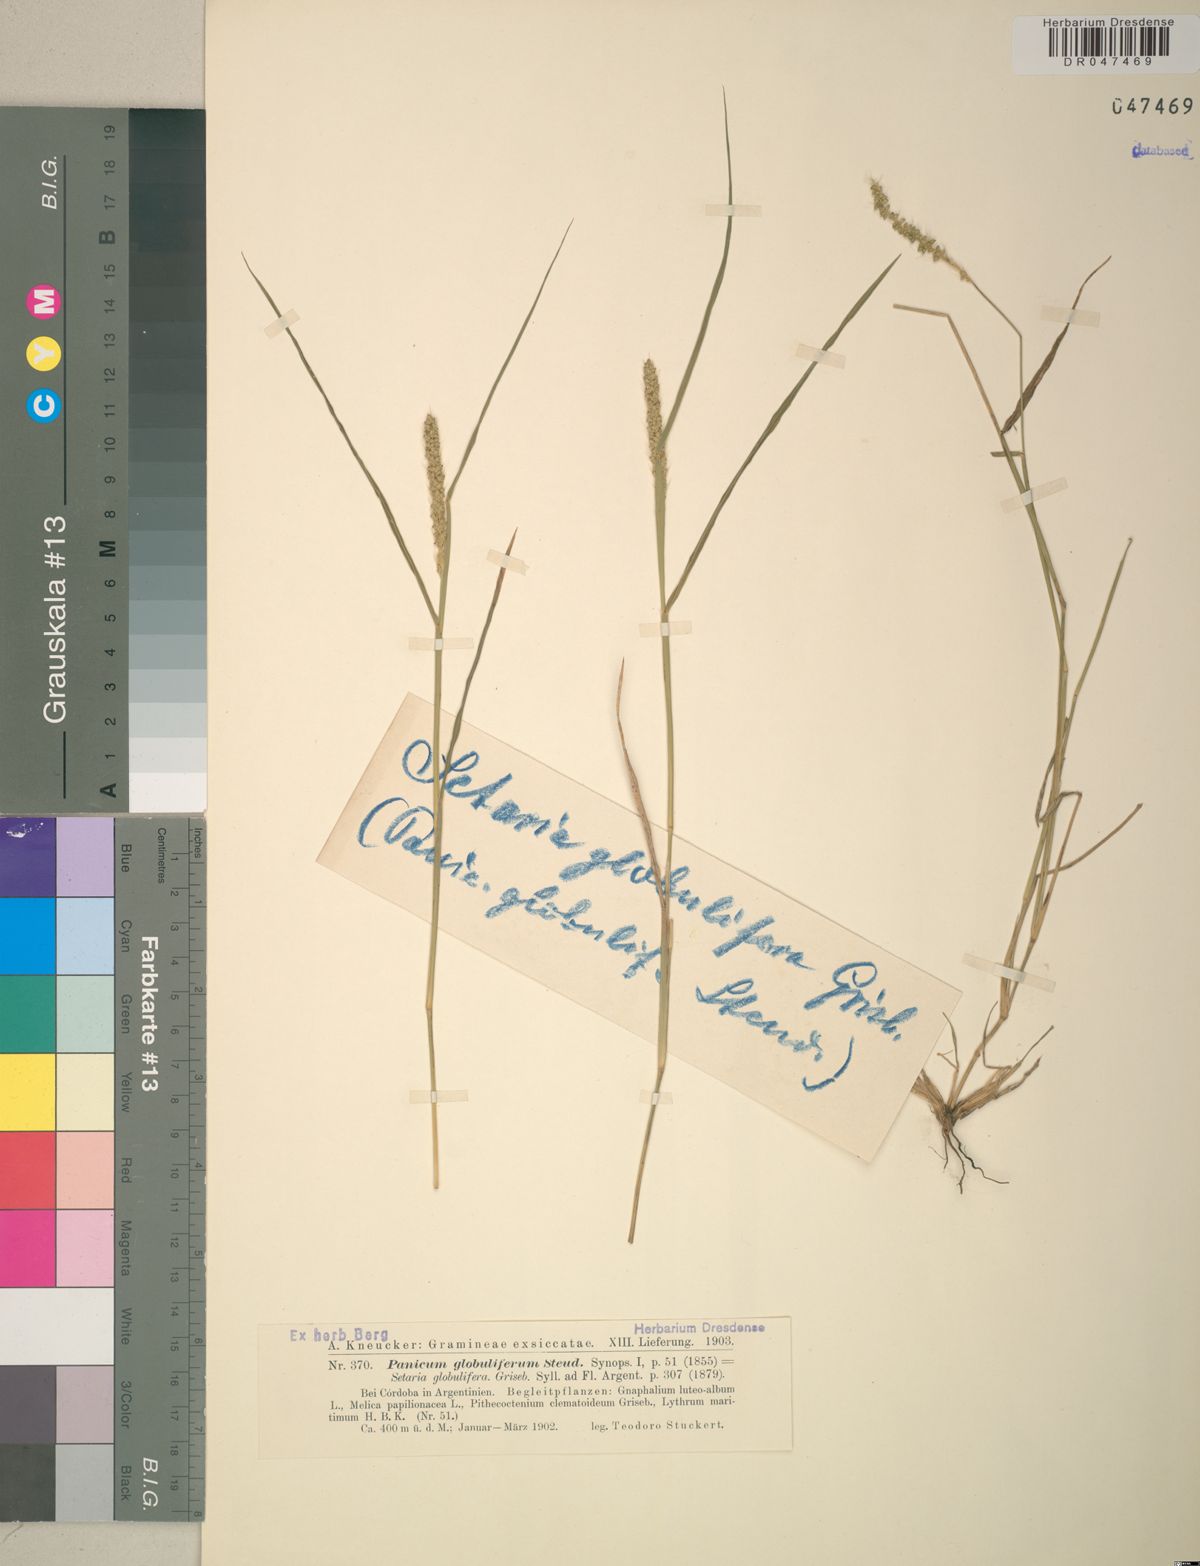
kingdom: Plantae
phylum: Tracheophyta
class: Liliopsida
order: Poales
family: Poaceae
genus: Setaria
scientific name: Setaria globulifera
